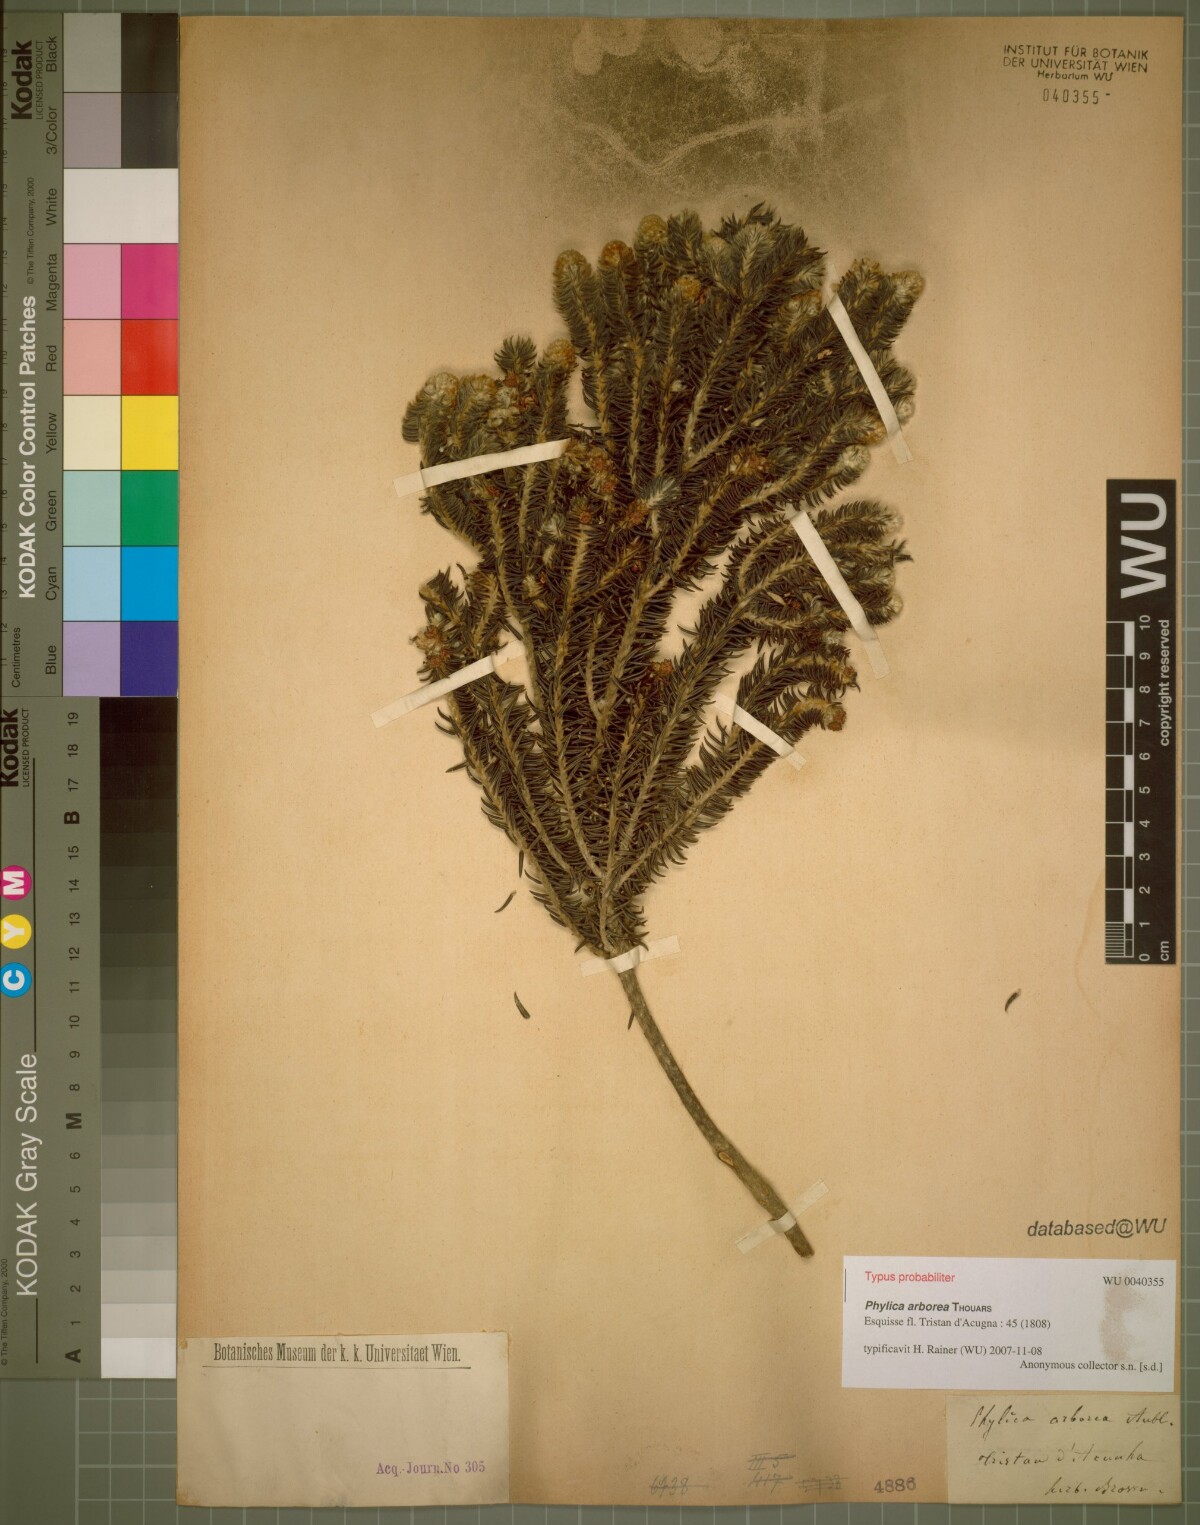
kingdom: Plantae
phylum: Tracheophyta
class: Magnoliopsida
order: Rosales
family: Rhamnaceae
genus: Phylica
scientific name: Phylica arborea
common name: Island cape myrtle
